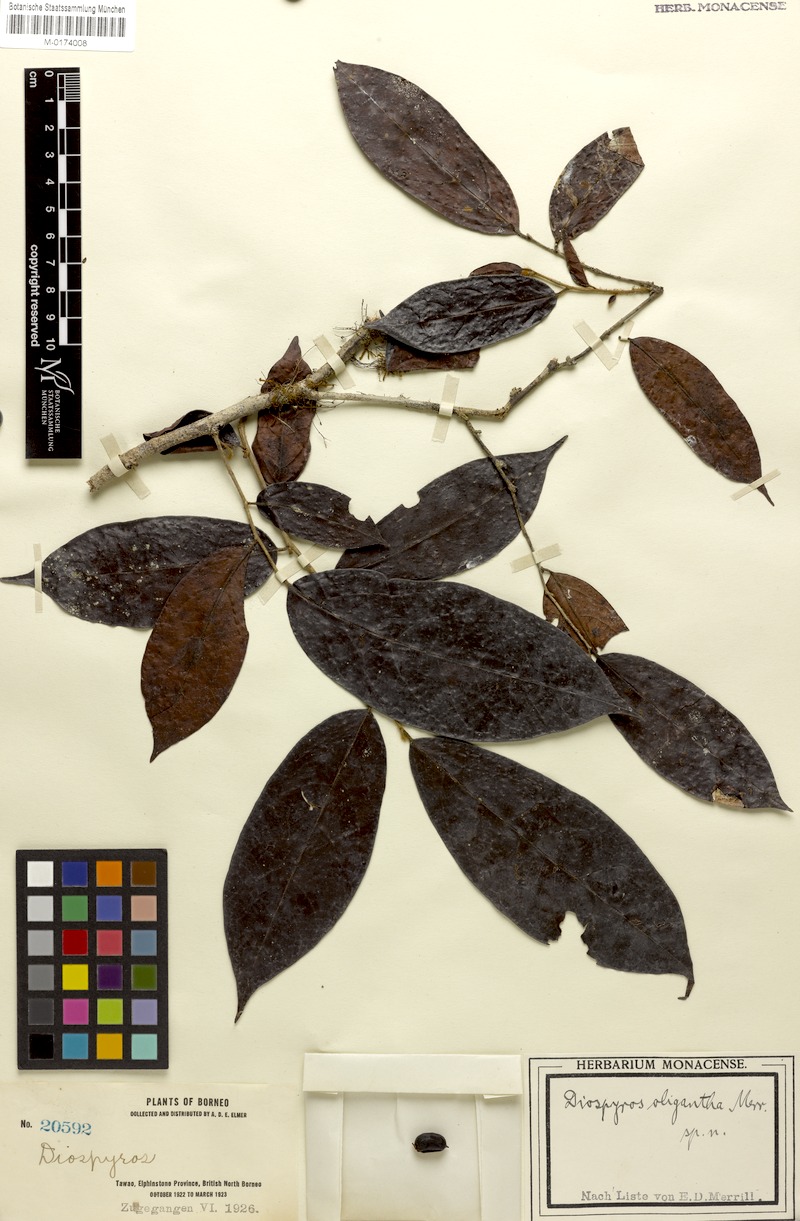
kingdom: Plantae
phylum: Tracheophyta
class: Magnoliopsida
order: Ericales
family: Ebenaceae
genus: Diospyros
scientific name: Diospyros oligantha
